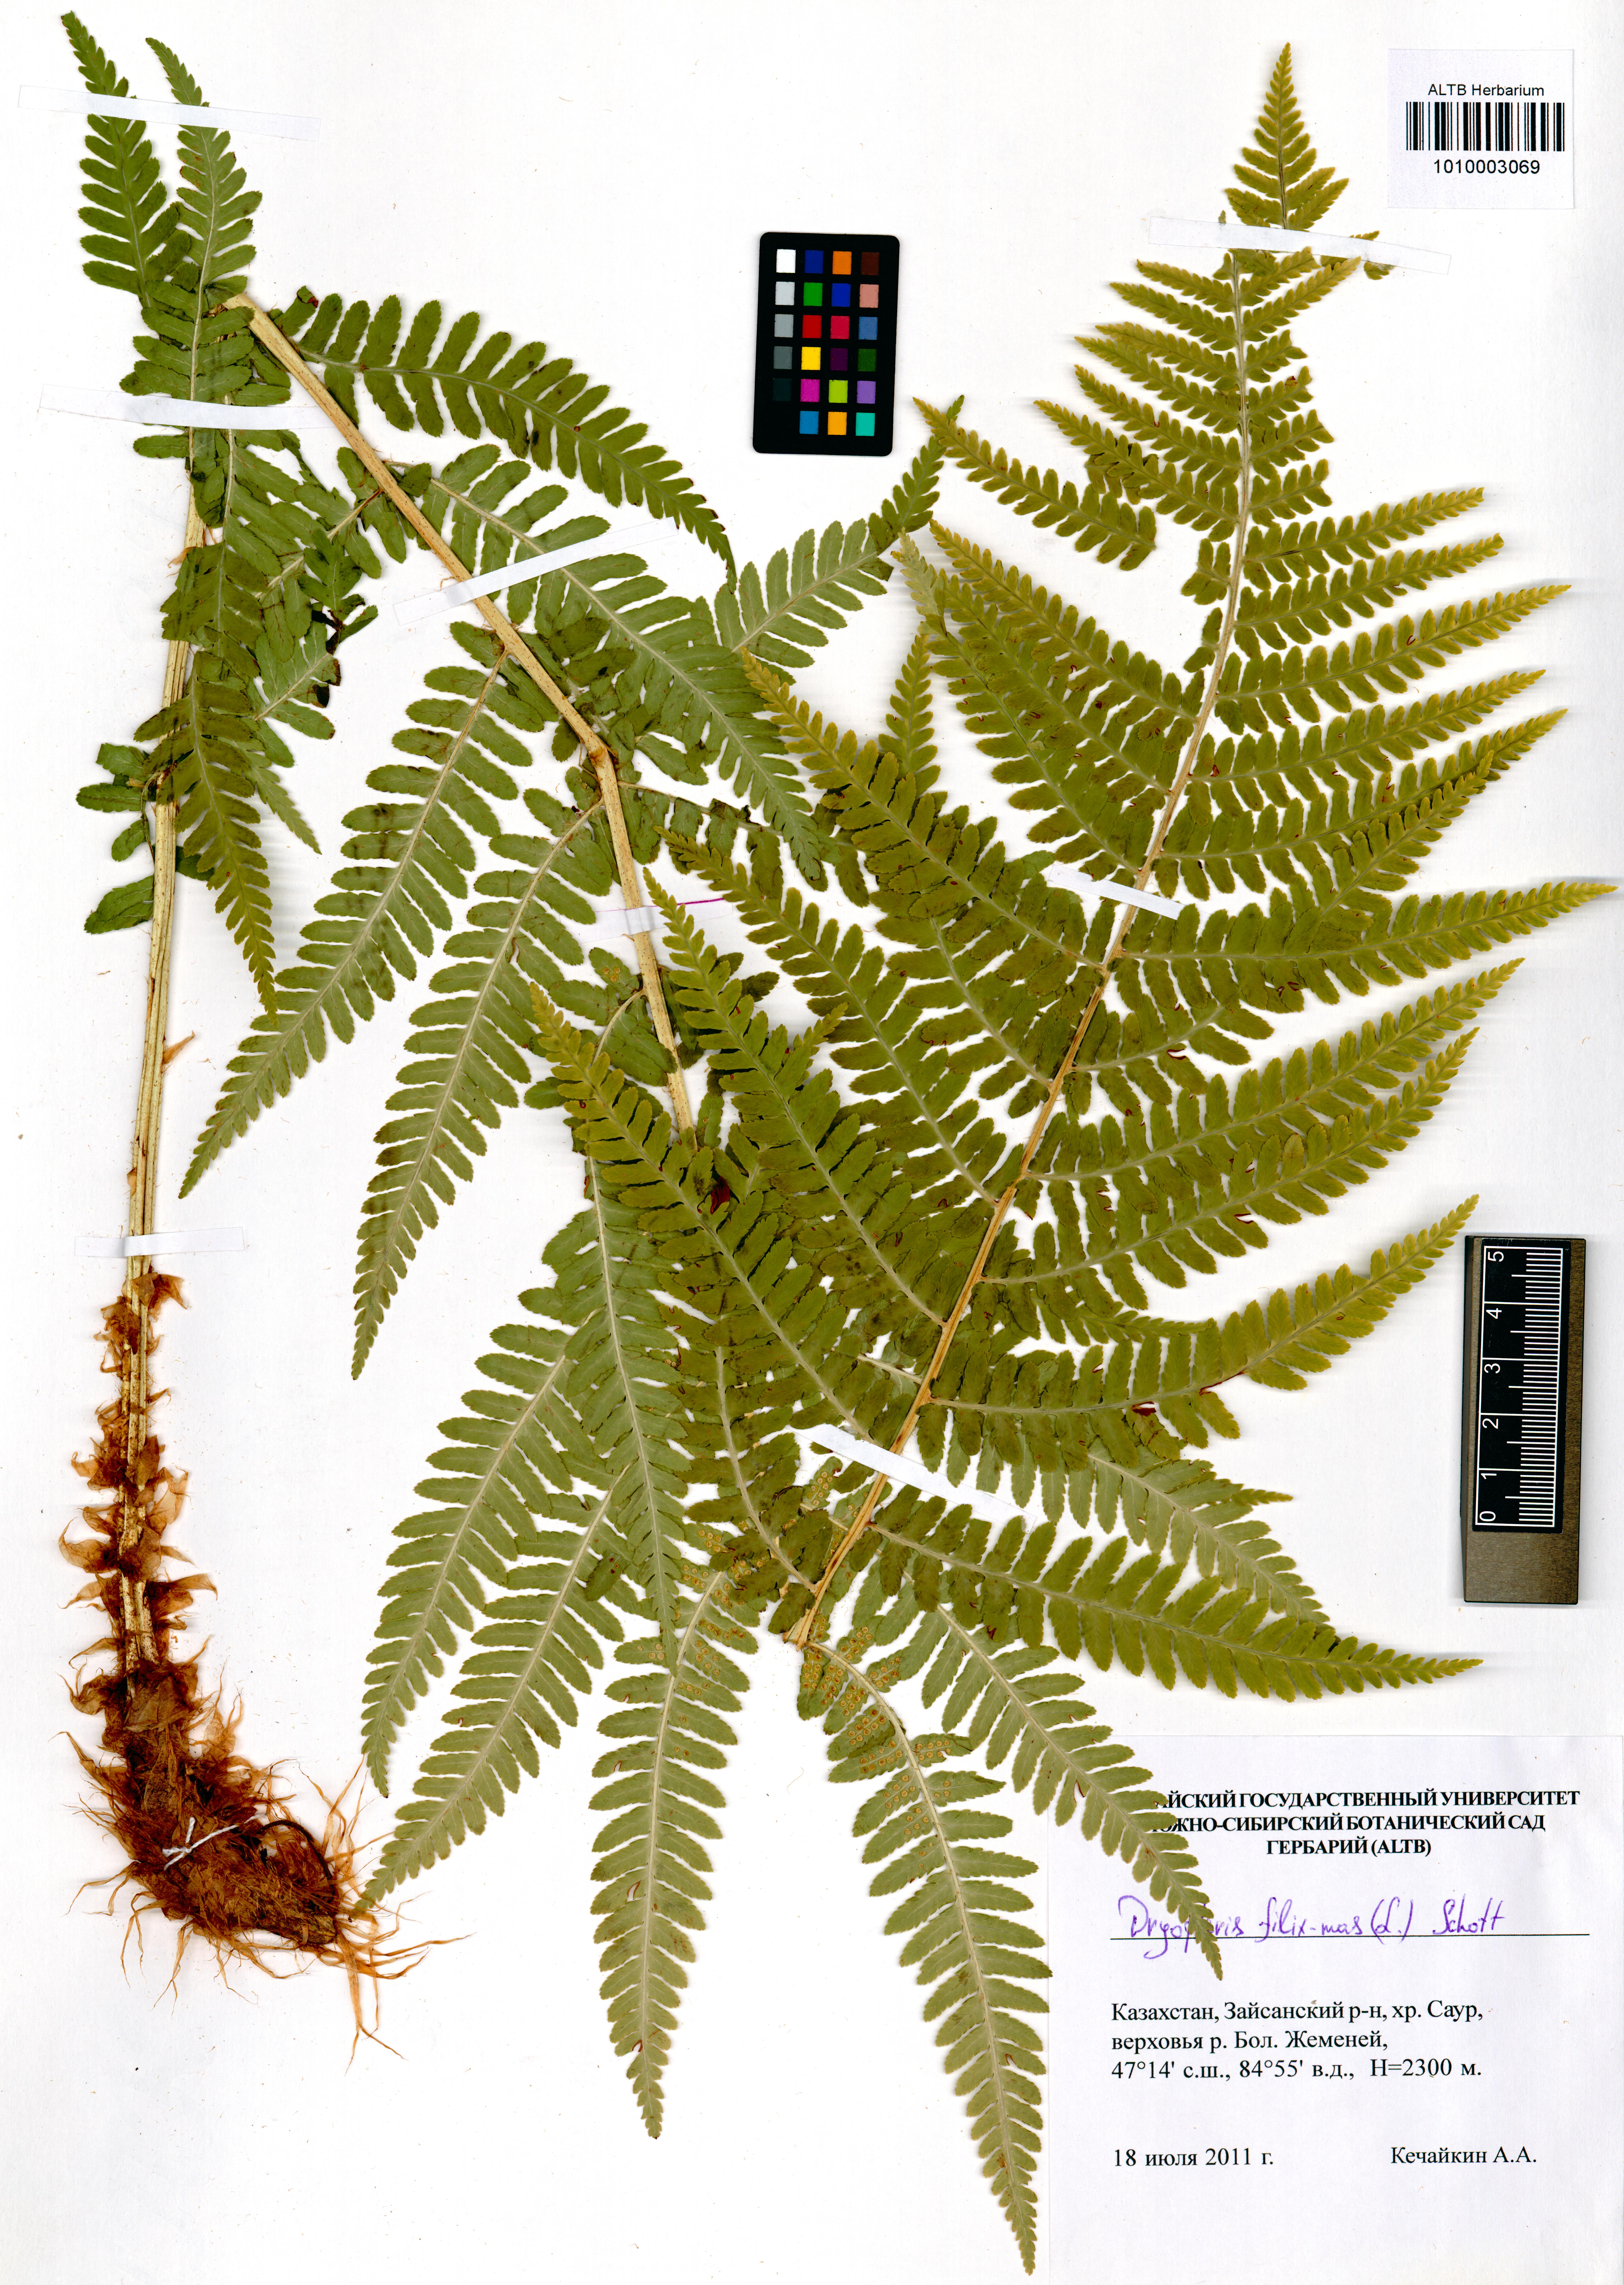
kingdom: Plantae
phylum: Tracheophyta
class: Polypodiopsida
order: Polypodiales
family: Dryopteridaceae
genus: Dryopteris
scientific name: Dryopteris filix-mas
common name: Male fern
